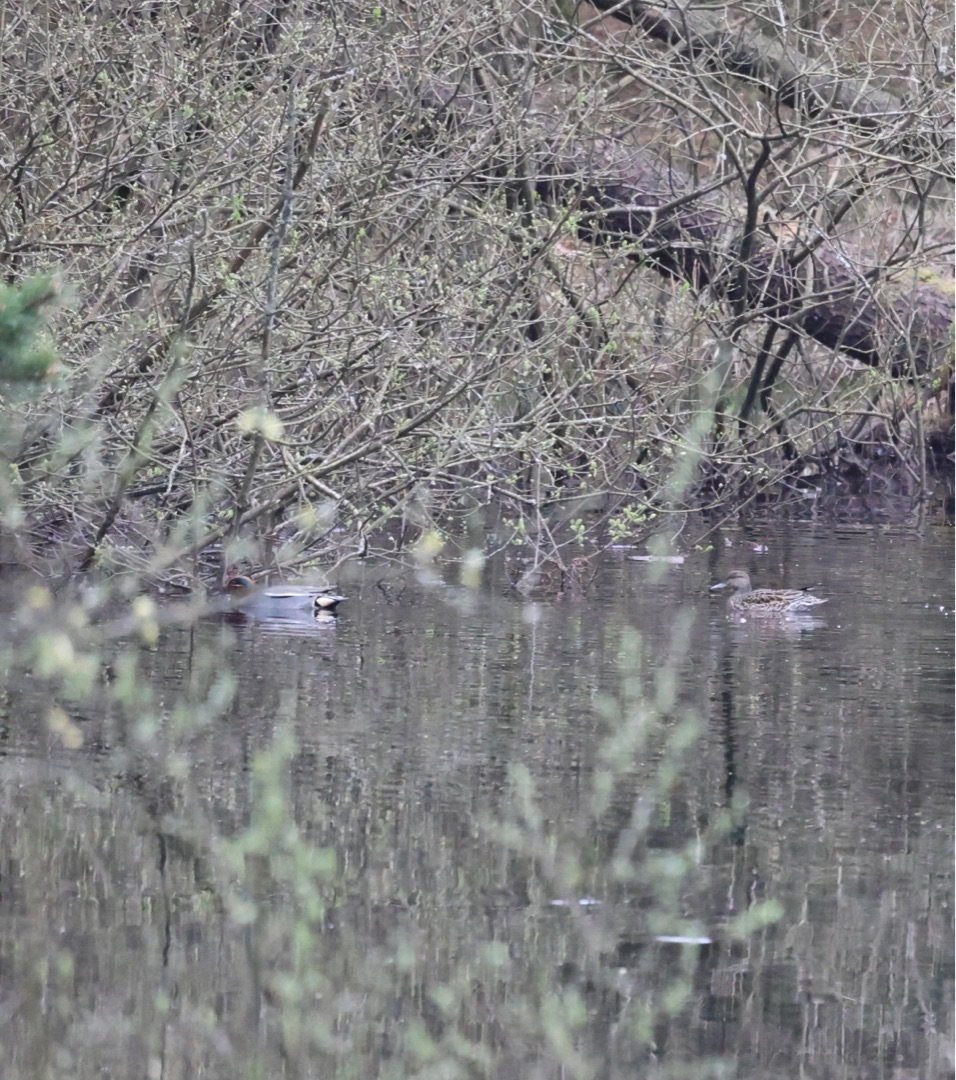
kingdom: Animalia
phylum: Chordata
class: Aves
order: Anseriformes
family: Anatidae
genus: Anas
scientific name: Anas crecca
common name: Krikand
